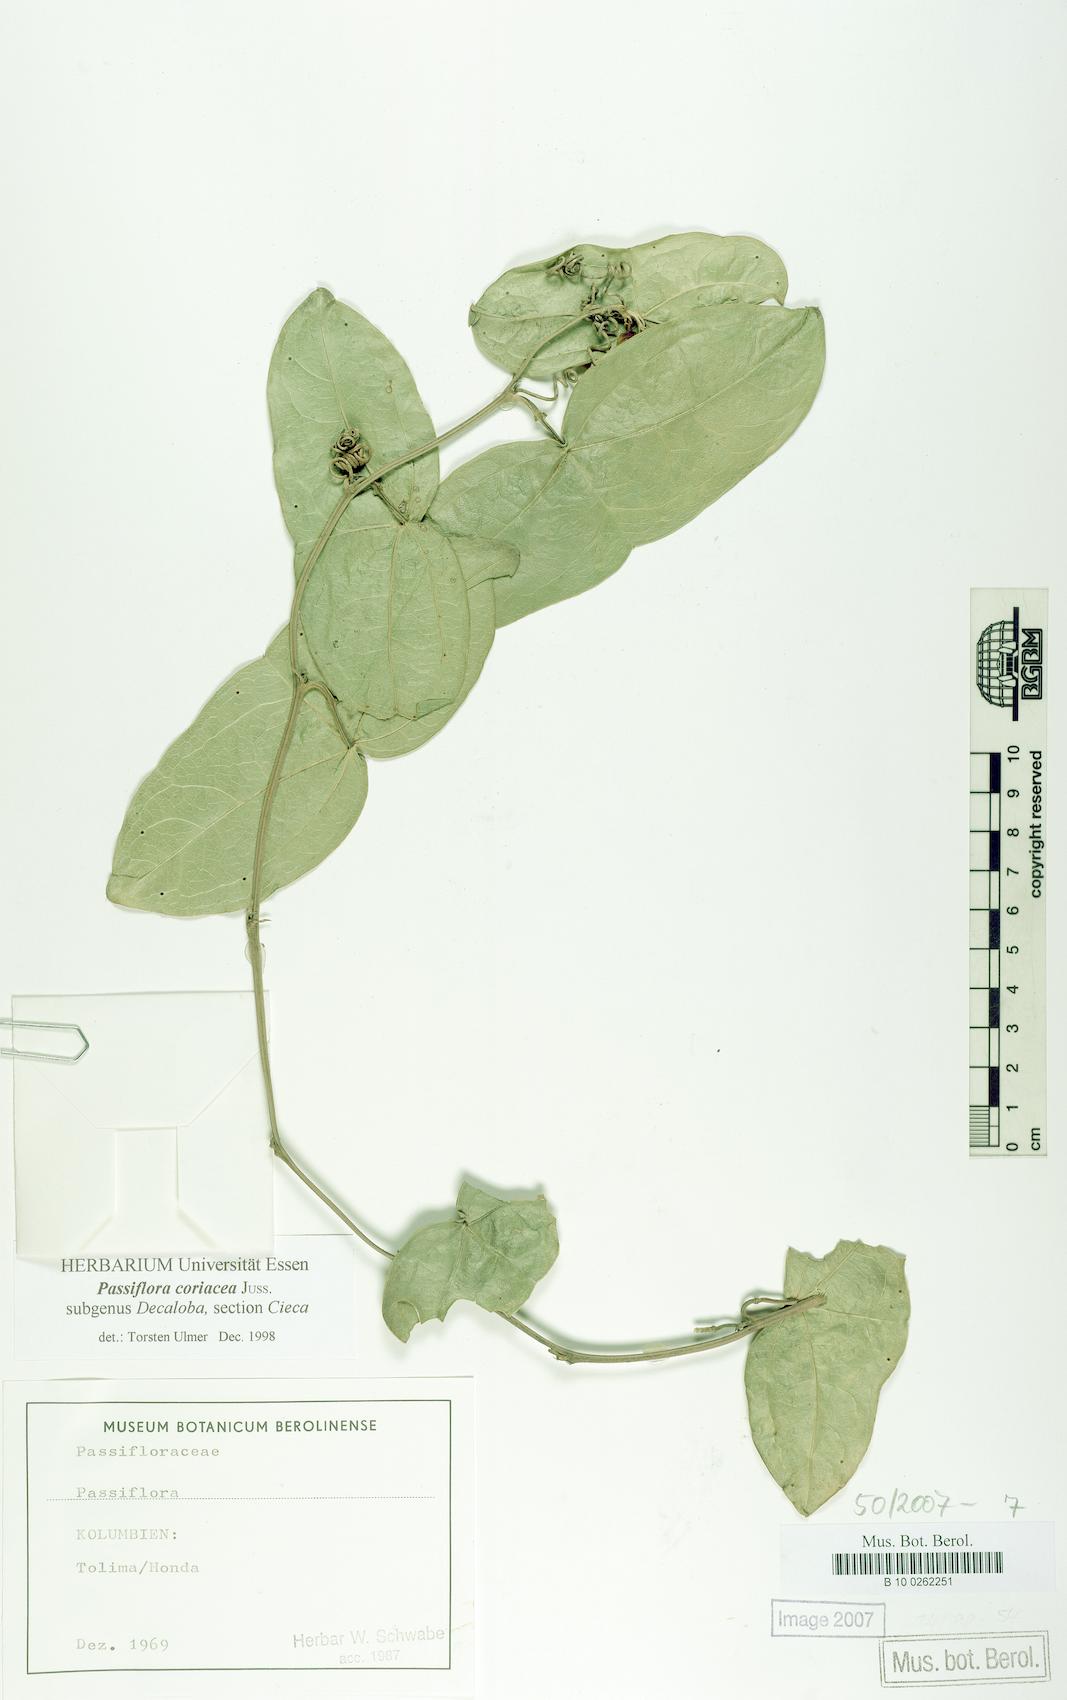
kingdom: Plantae
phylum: Tracheophyta
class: Magnoliopsida
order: Malpighiales
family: Passifloraceae
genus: Passiflora
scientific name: Passiflora coriacea
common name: Bat-leaf passionflower
